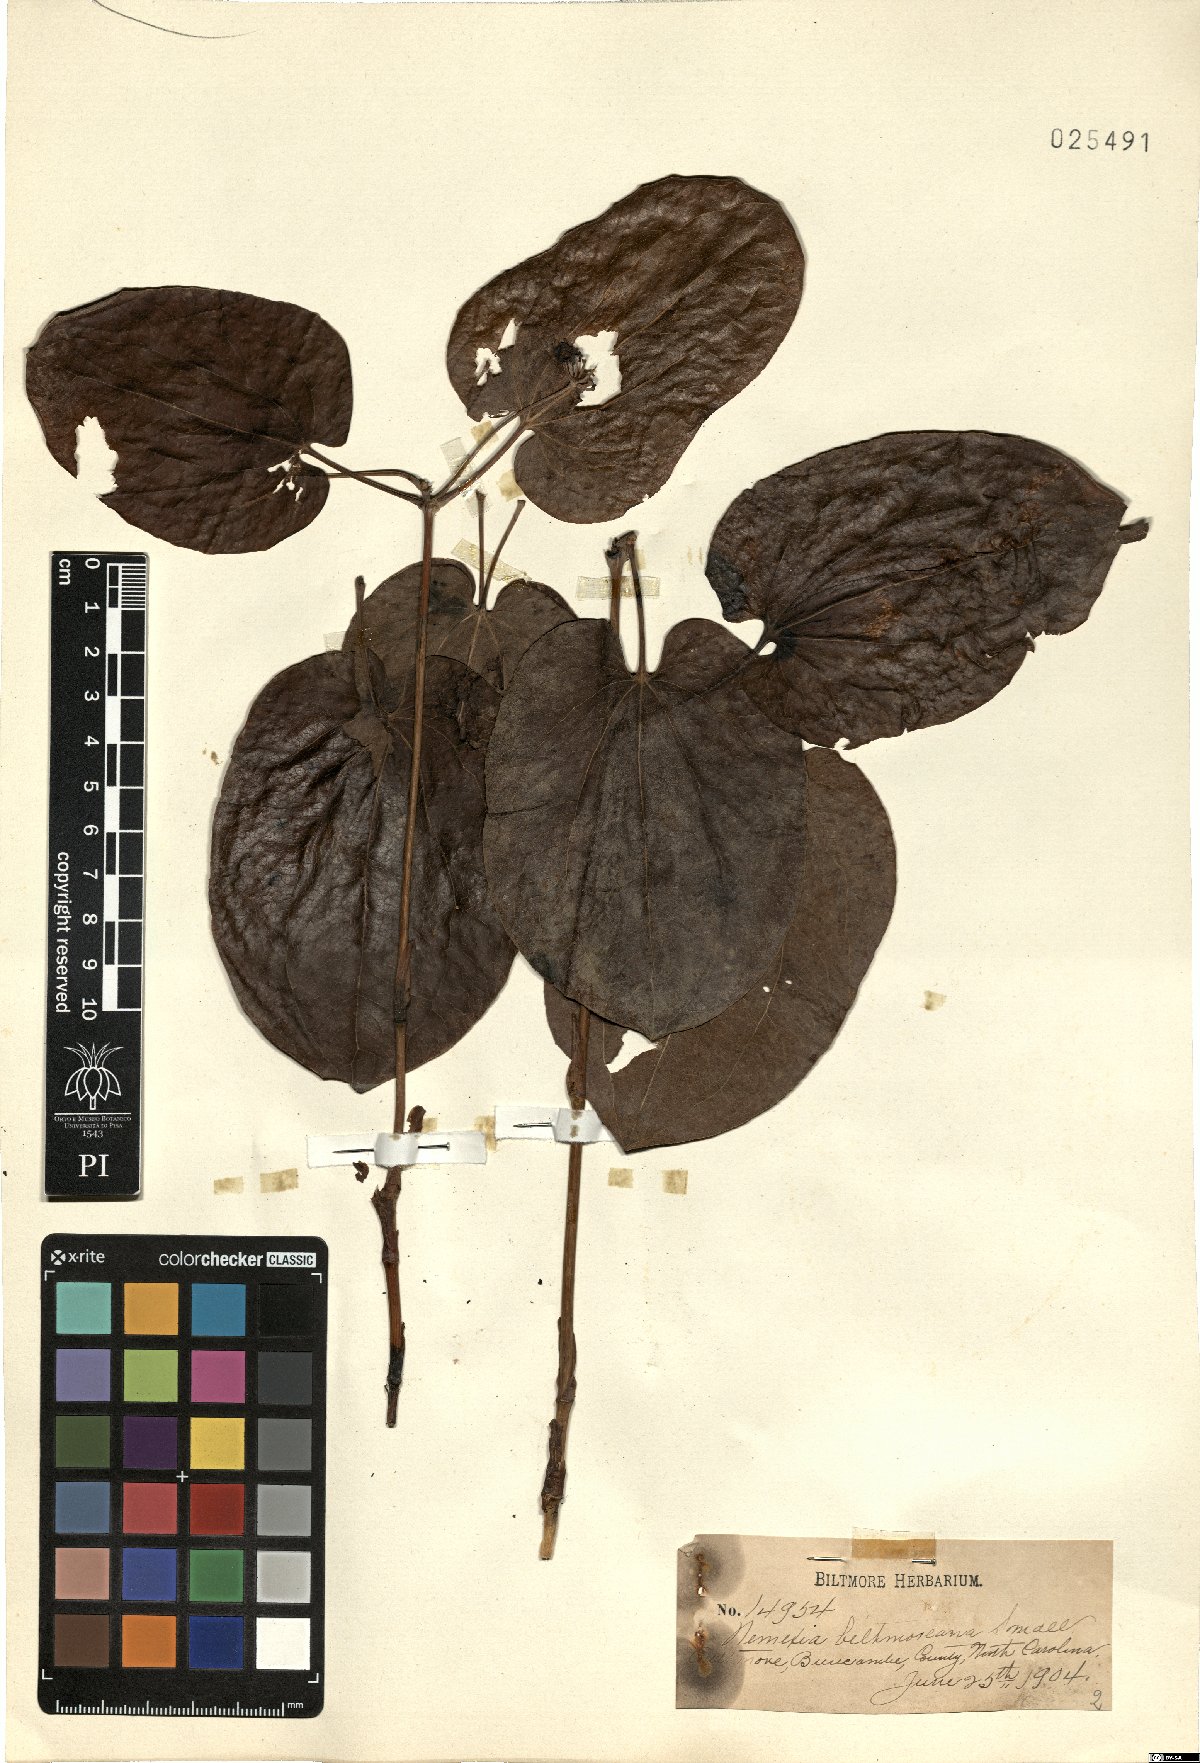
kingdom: Plantae
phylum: Tracheophyta
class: Liliopsida
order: Liliales
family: Smilacaceae
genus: Smilax
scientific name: Smilax biltmoreana
